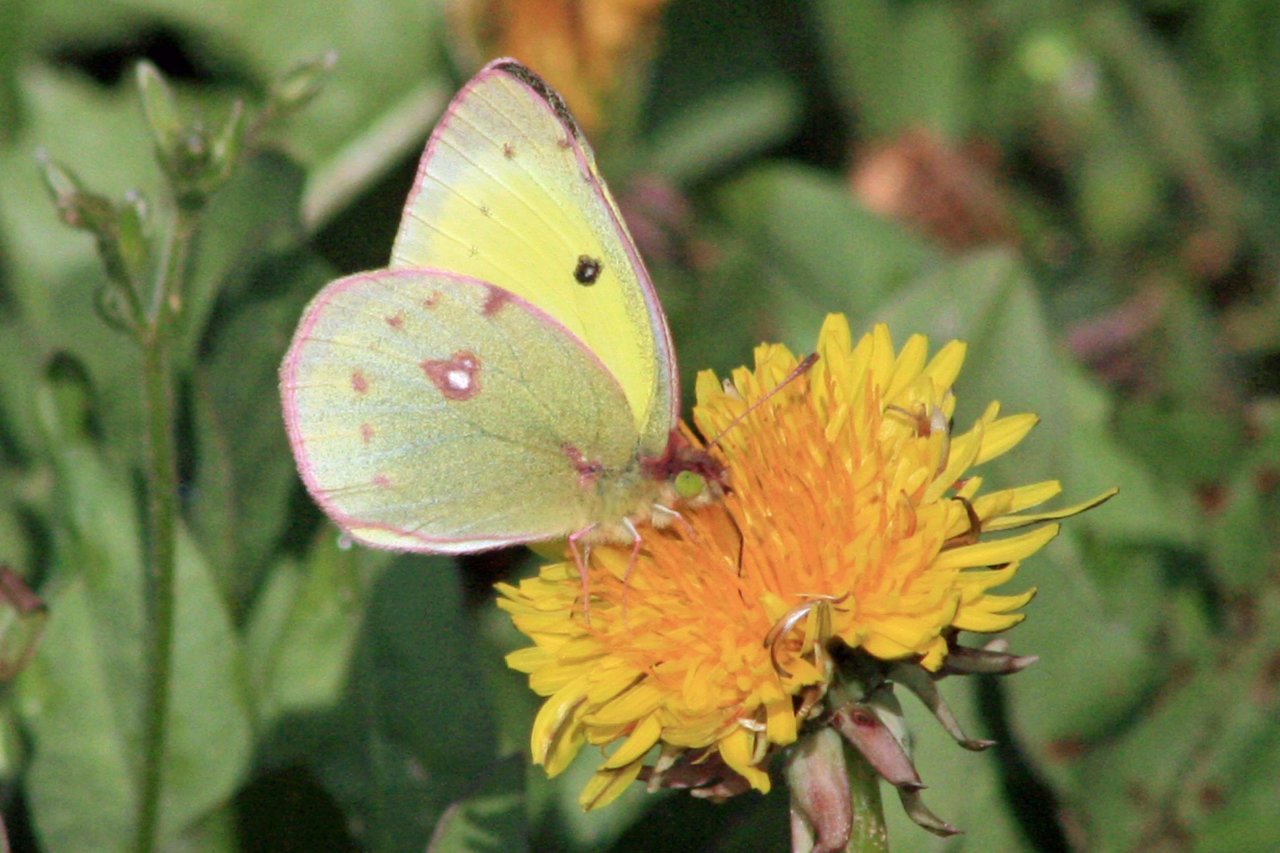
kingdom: Animalia
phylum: Arthropoda
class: Insecta
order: Lepidoptera
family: Pieridae
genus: Colias
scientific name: Colias philodice
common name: Clouded Sulphur
